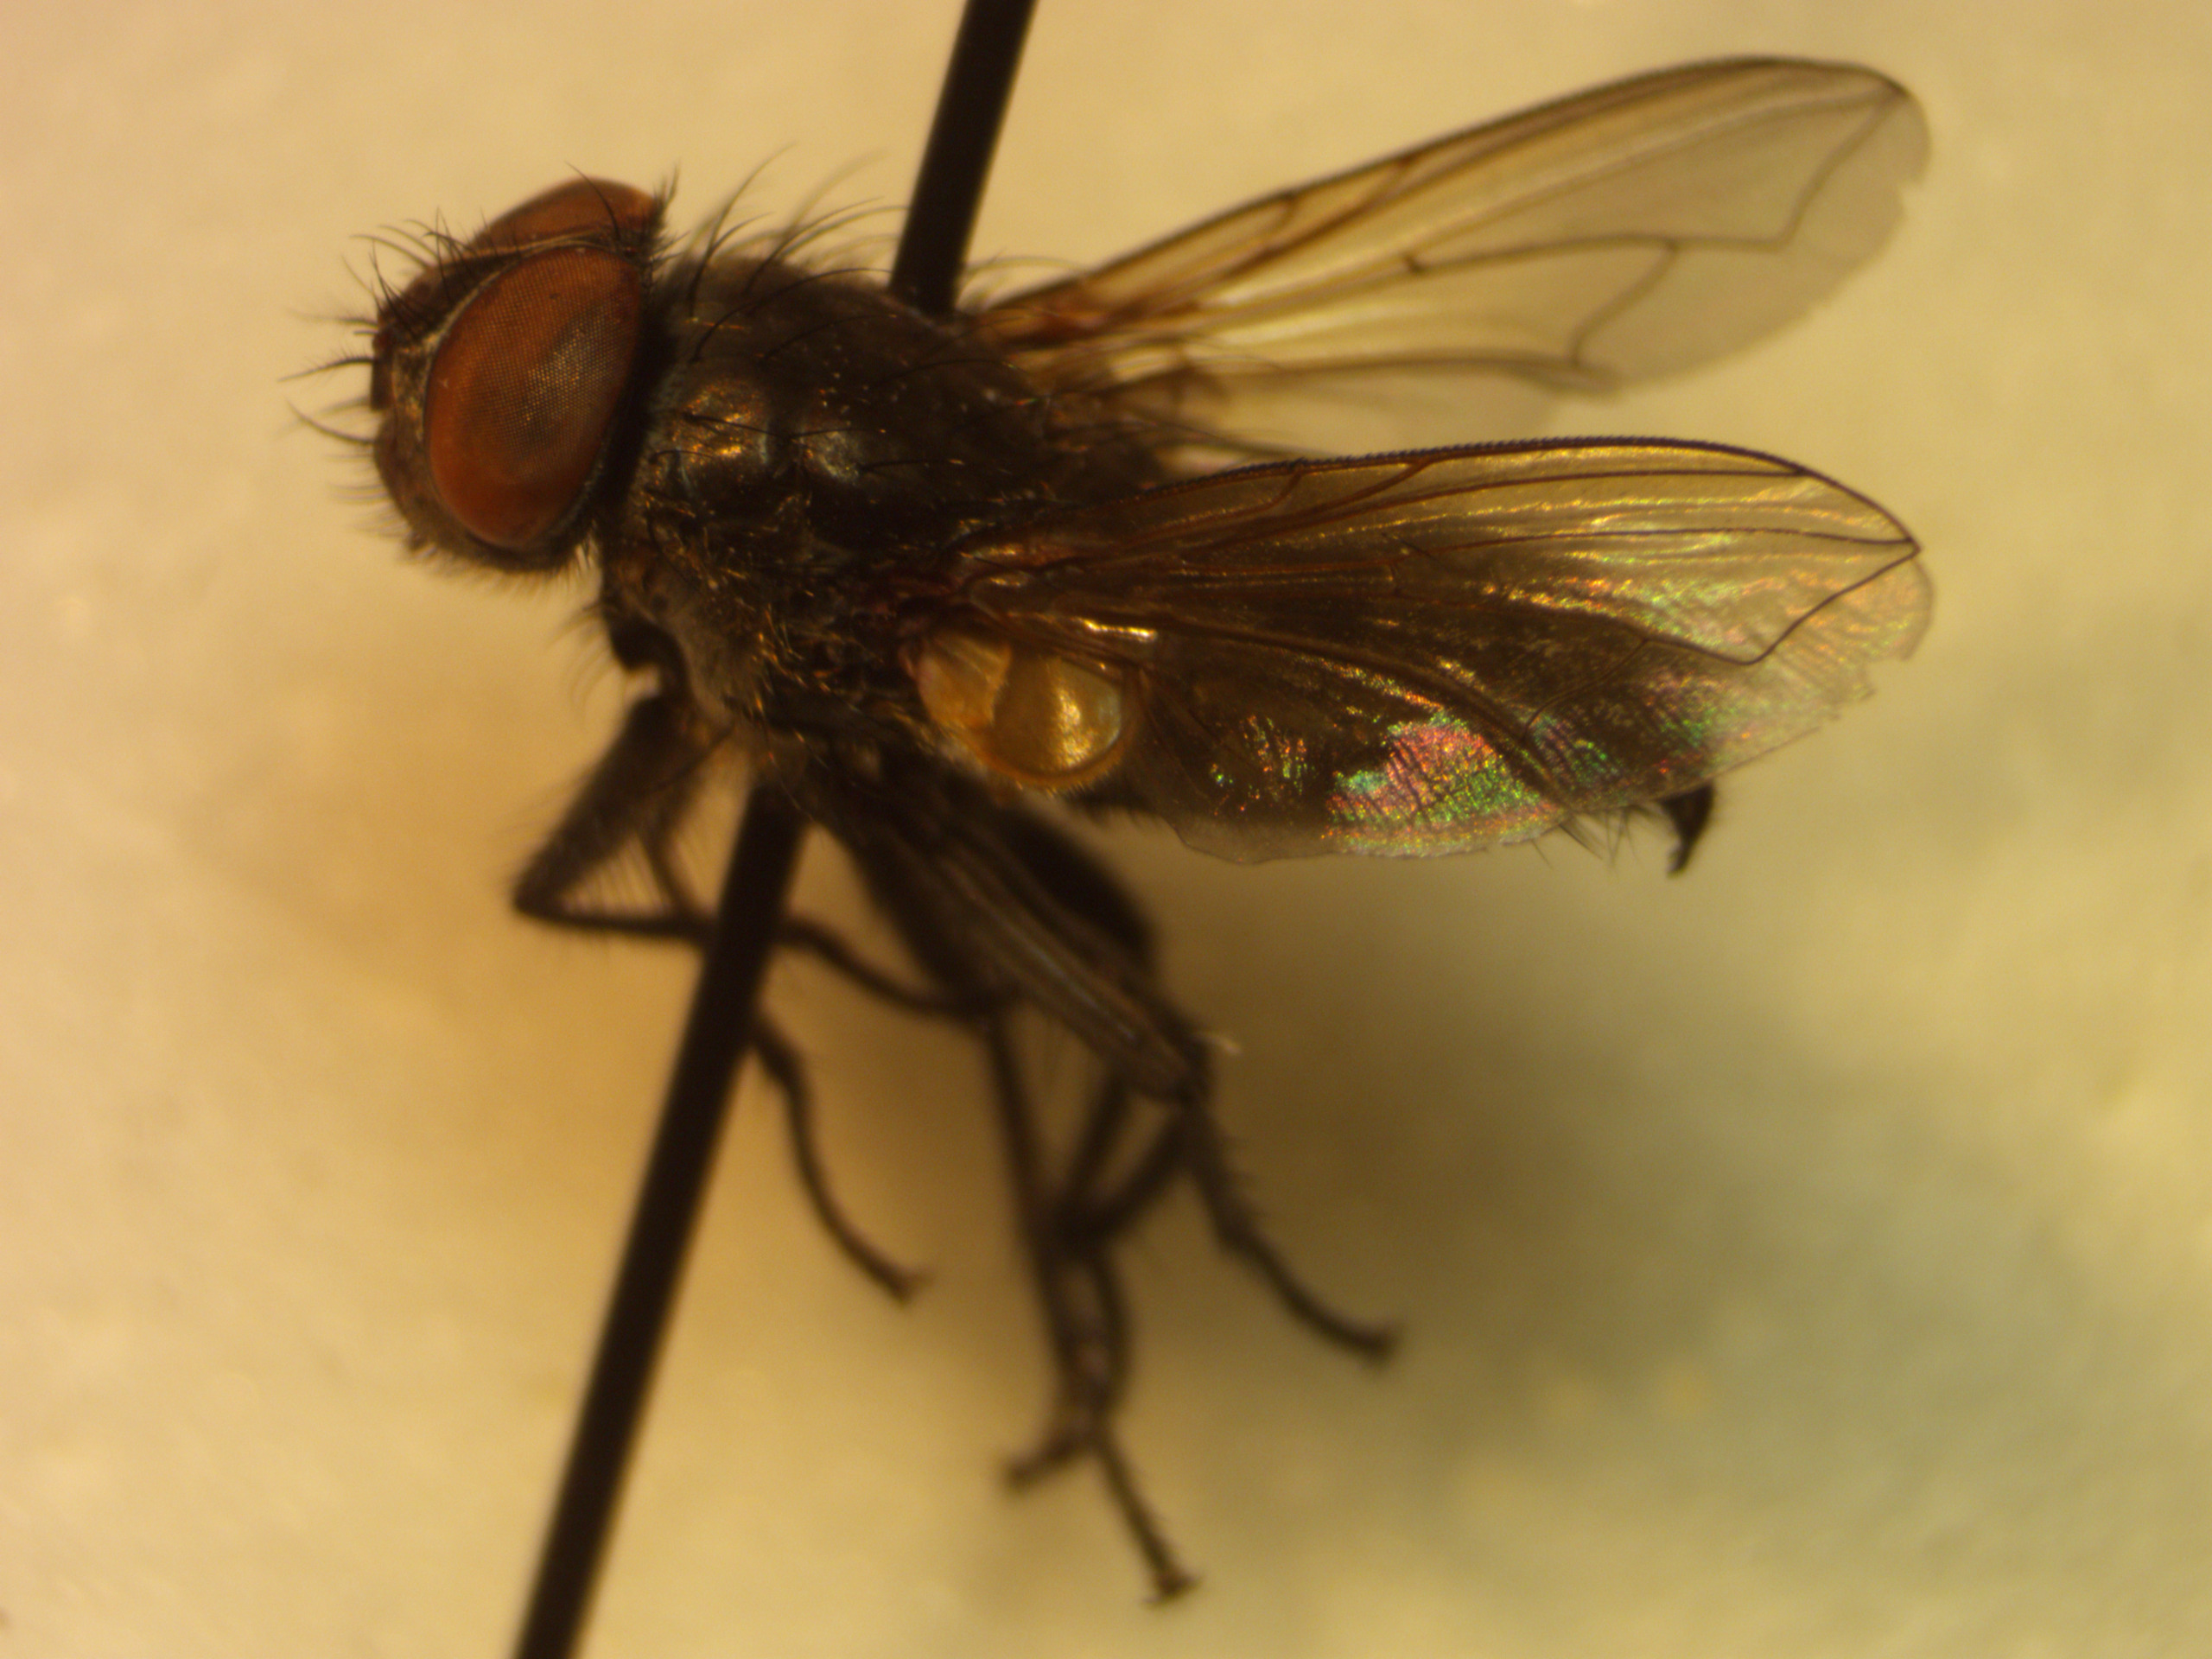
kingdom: Animalia
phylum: Arthropoda
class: Insecta
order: Diptera
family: Polleniidae
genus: Pollenia
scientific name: Pollenia griseotomentosa
